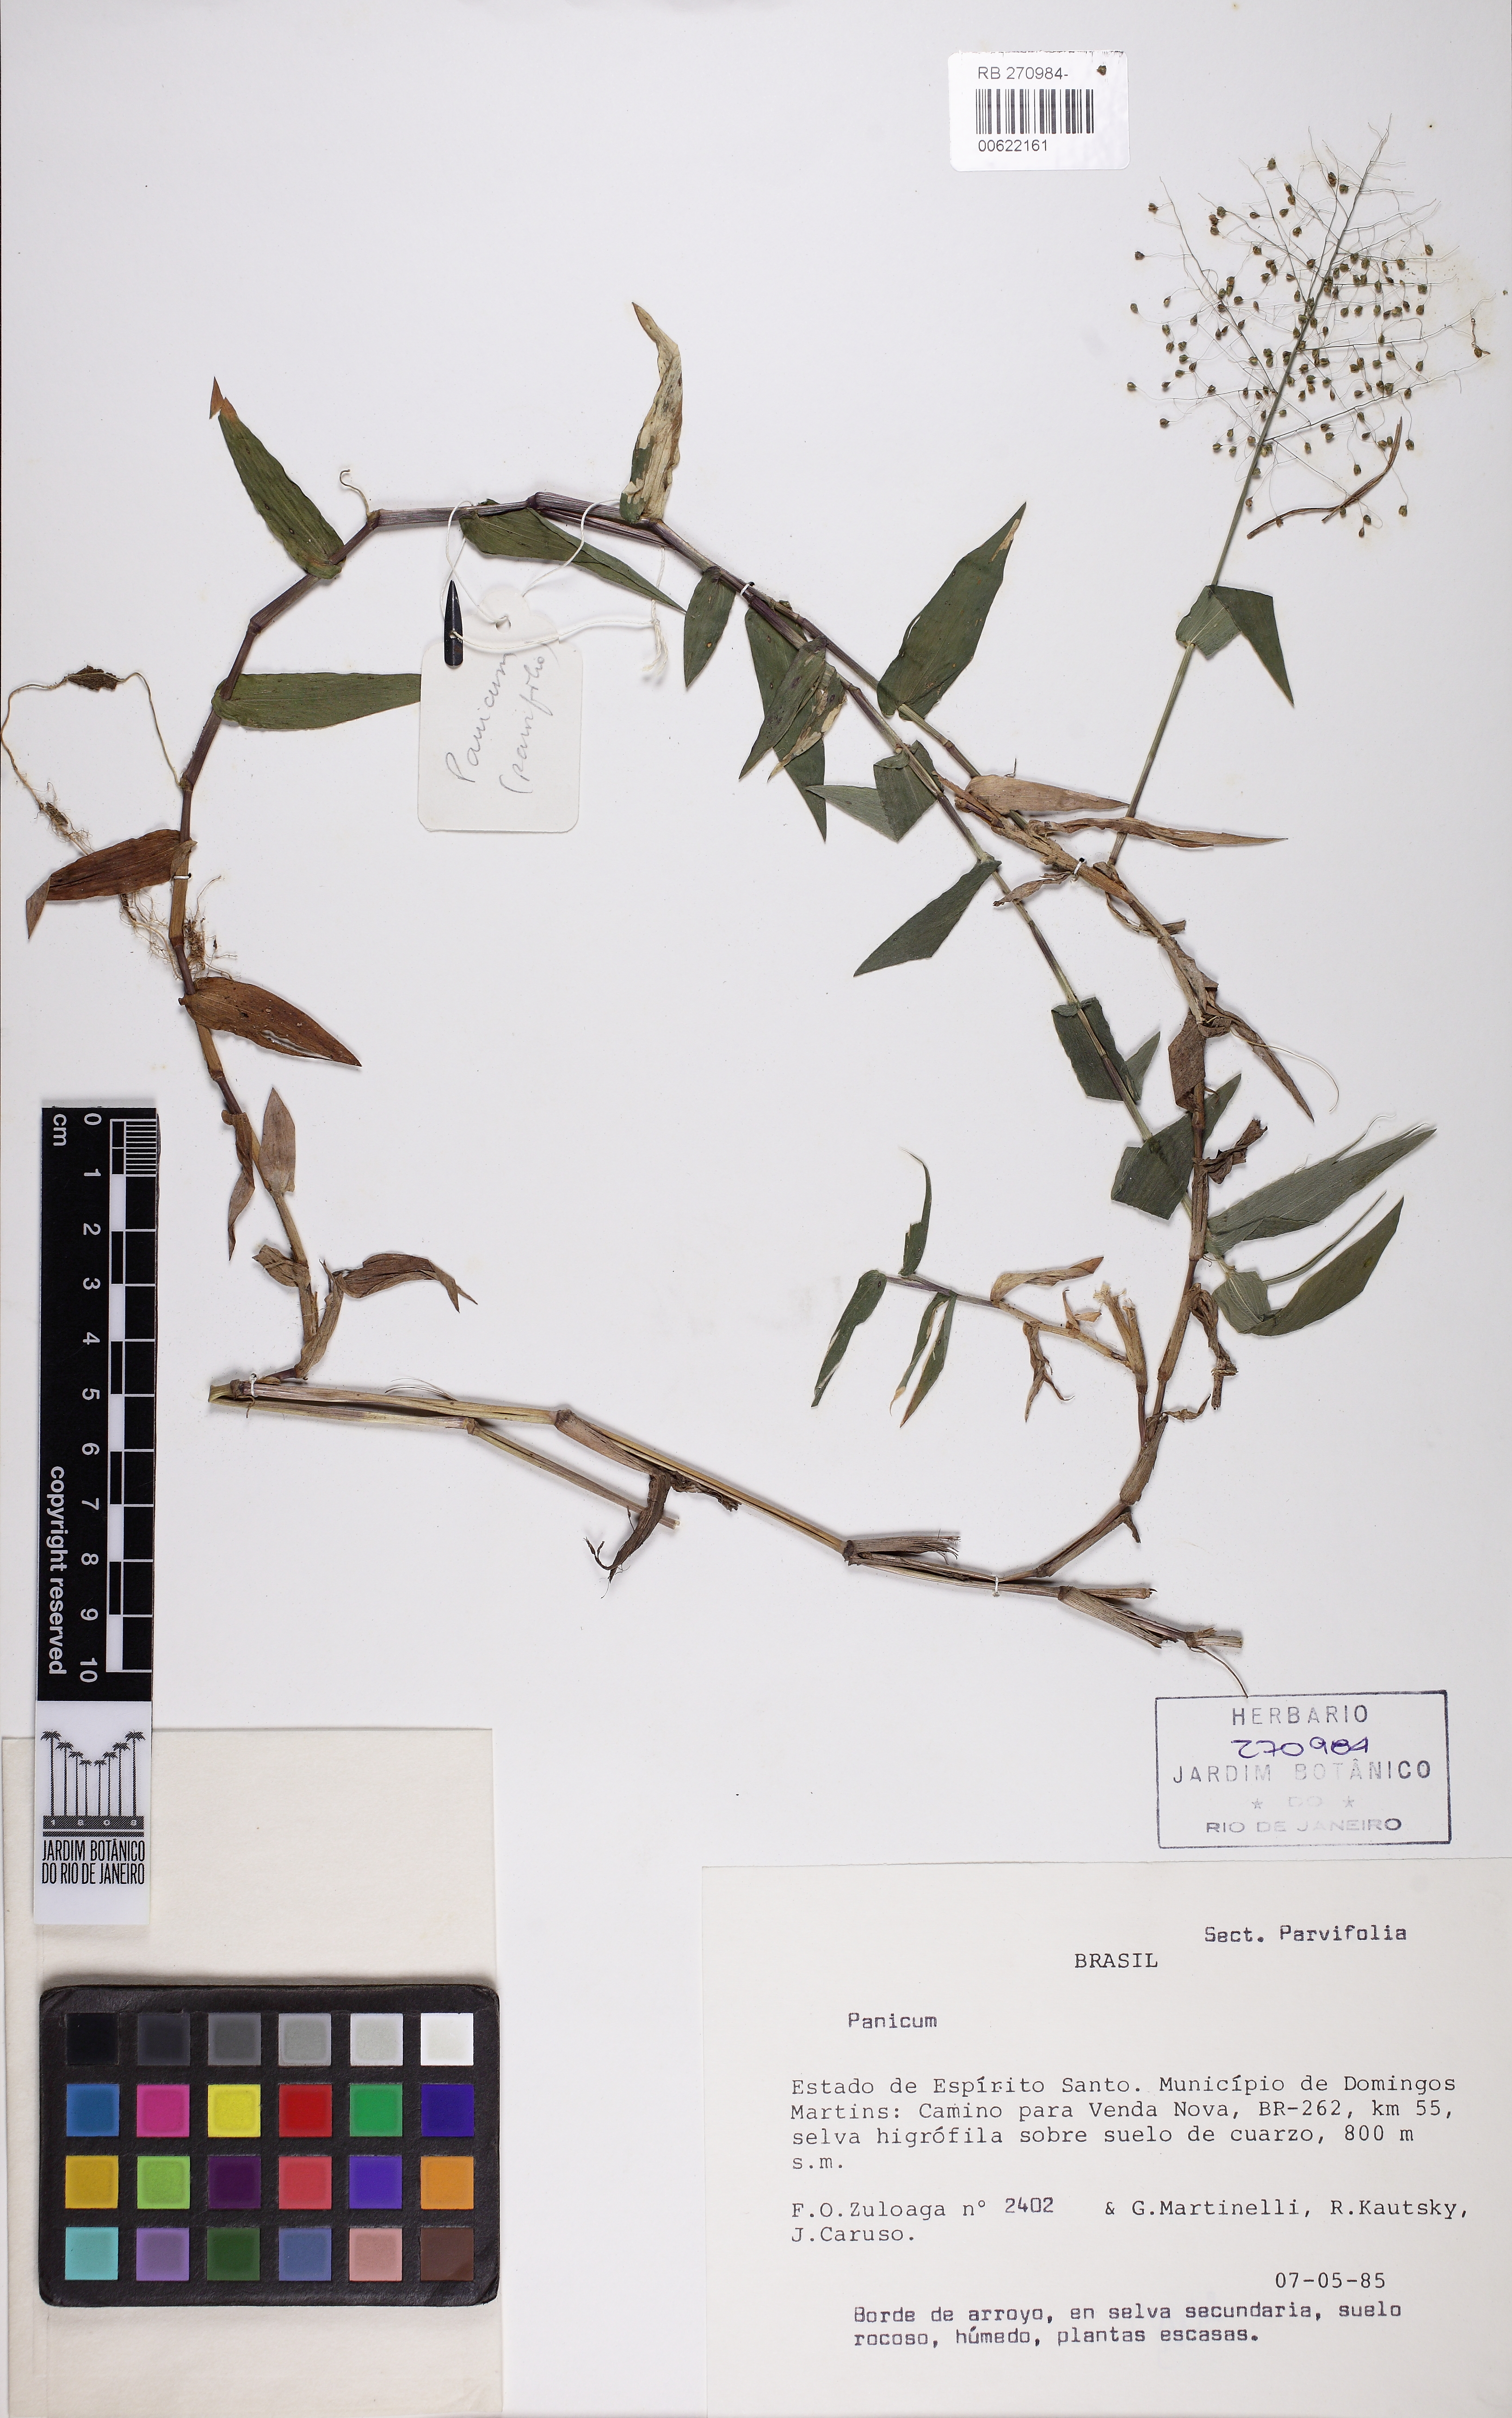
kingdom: Plantae
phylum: Tracheophyta
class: Liliopsida
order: Poales
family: Poaceae
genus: Trichanthecium
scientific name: Trichanthecium schwackeanum
